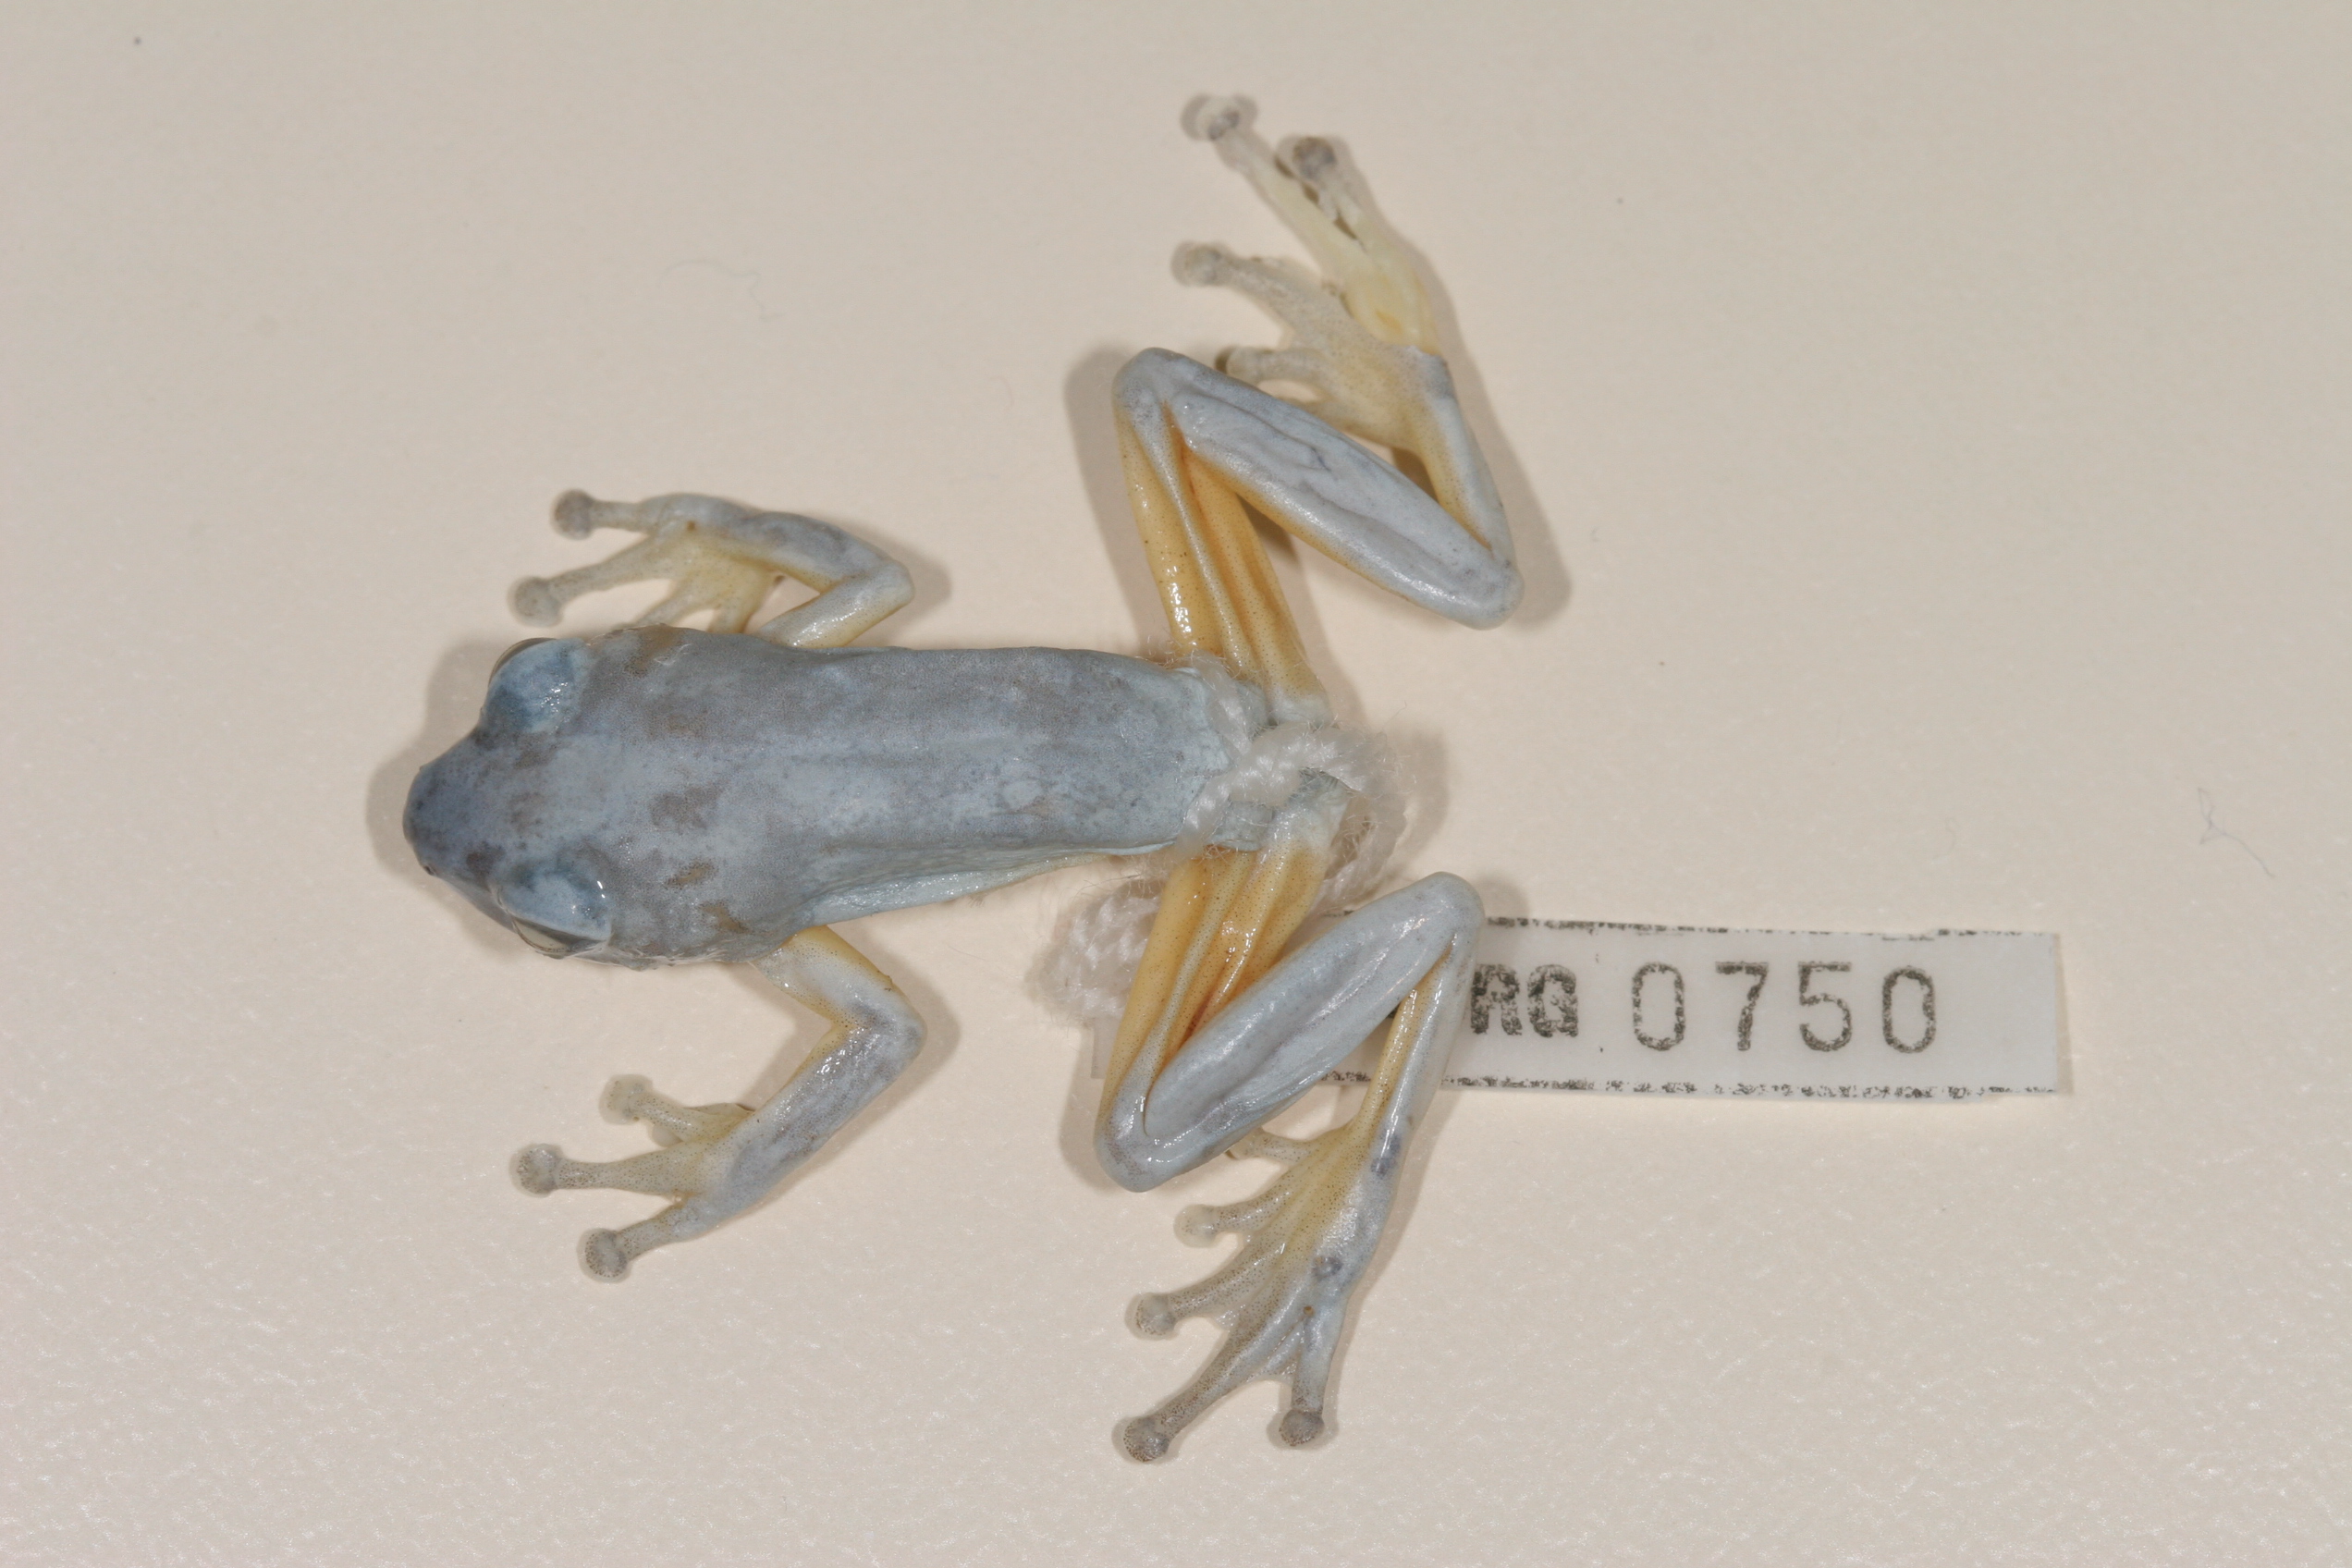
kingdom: Animalia
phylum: Chordata
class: Amphibia
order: Anura
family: Hyperoliidae
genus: Hyperolius
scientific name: Hyperolius tuberilinguis
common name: Tinker reed frog
